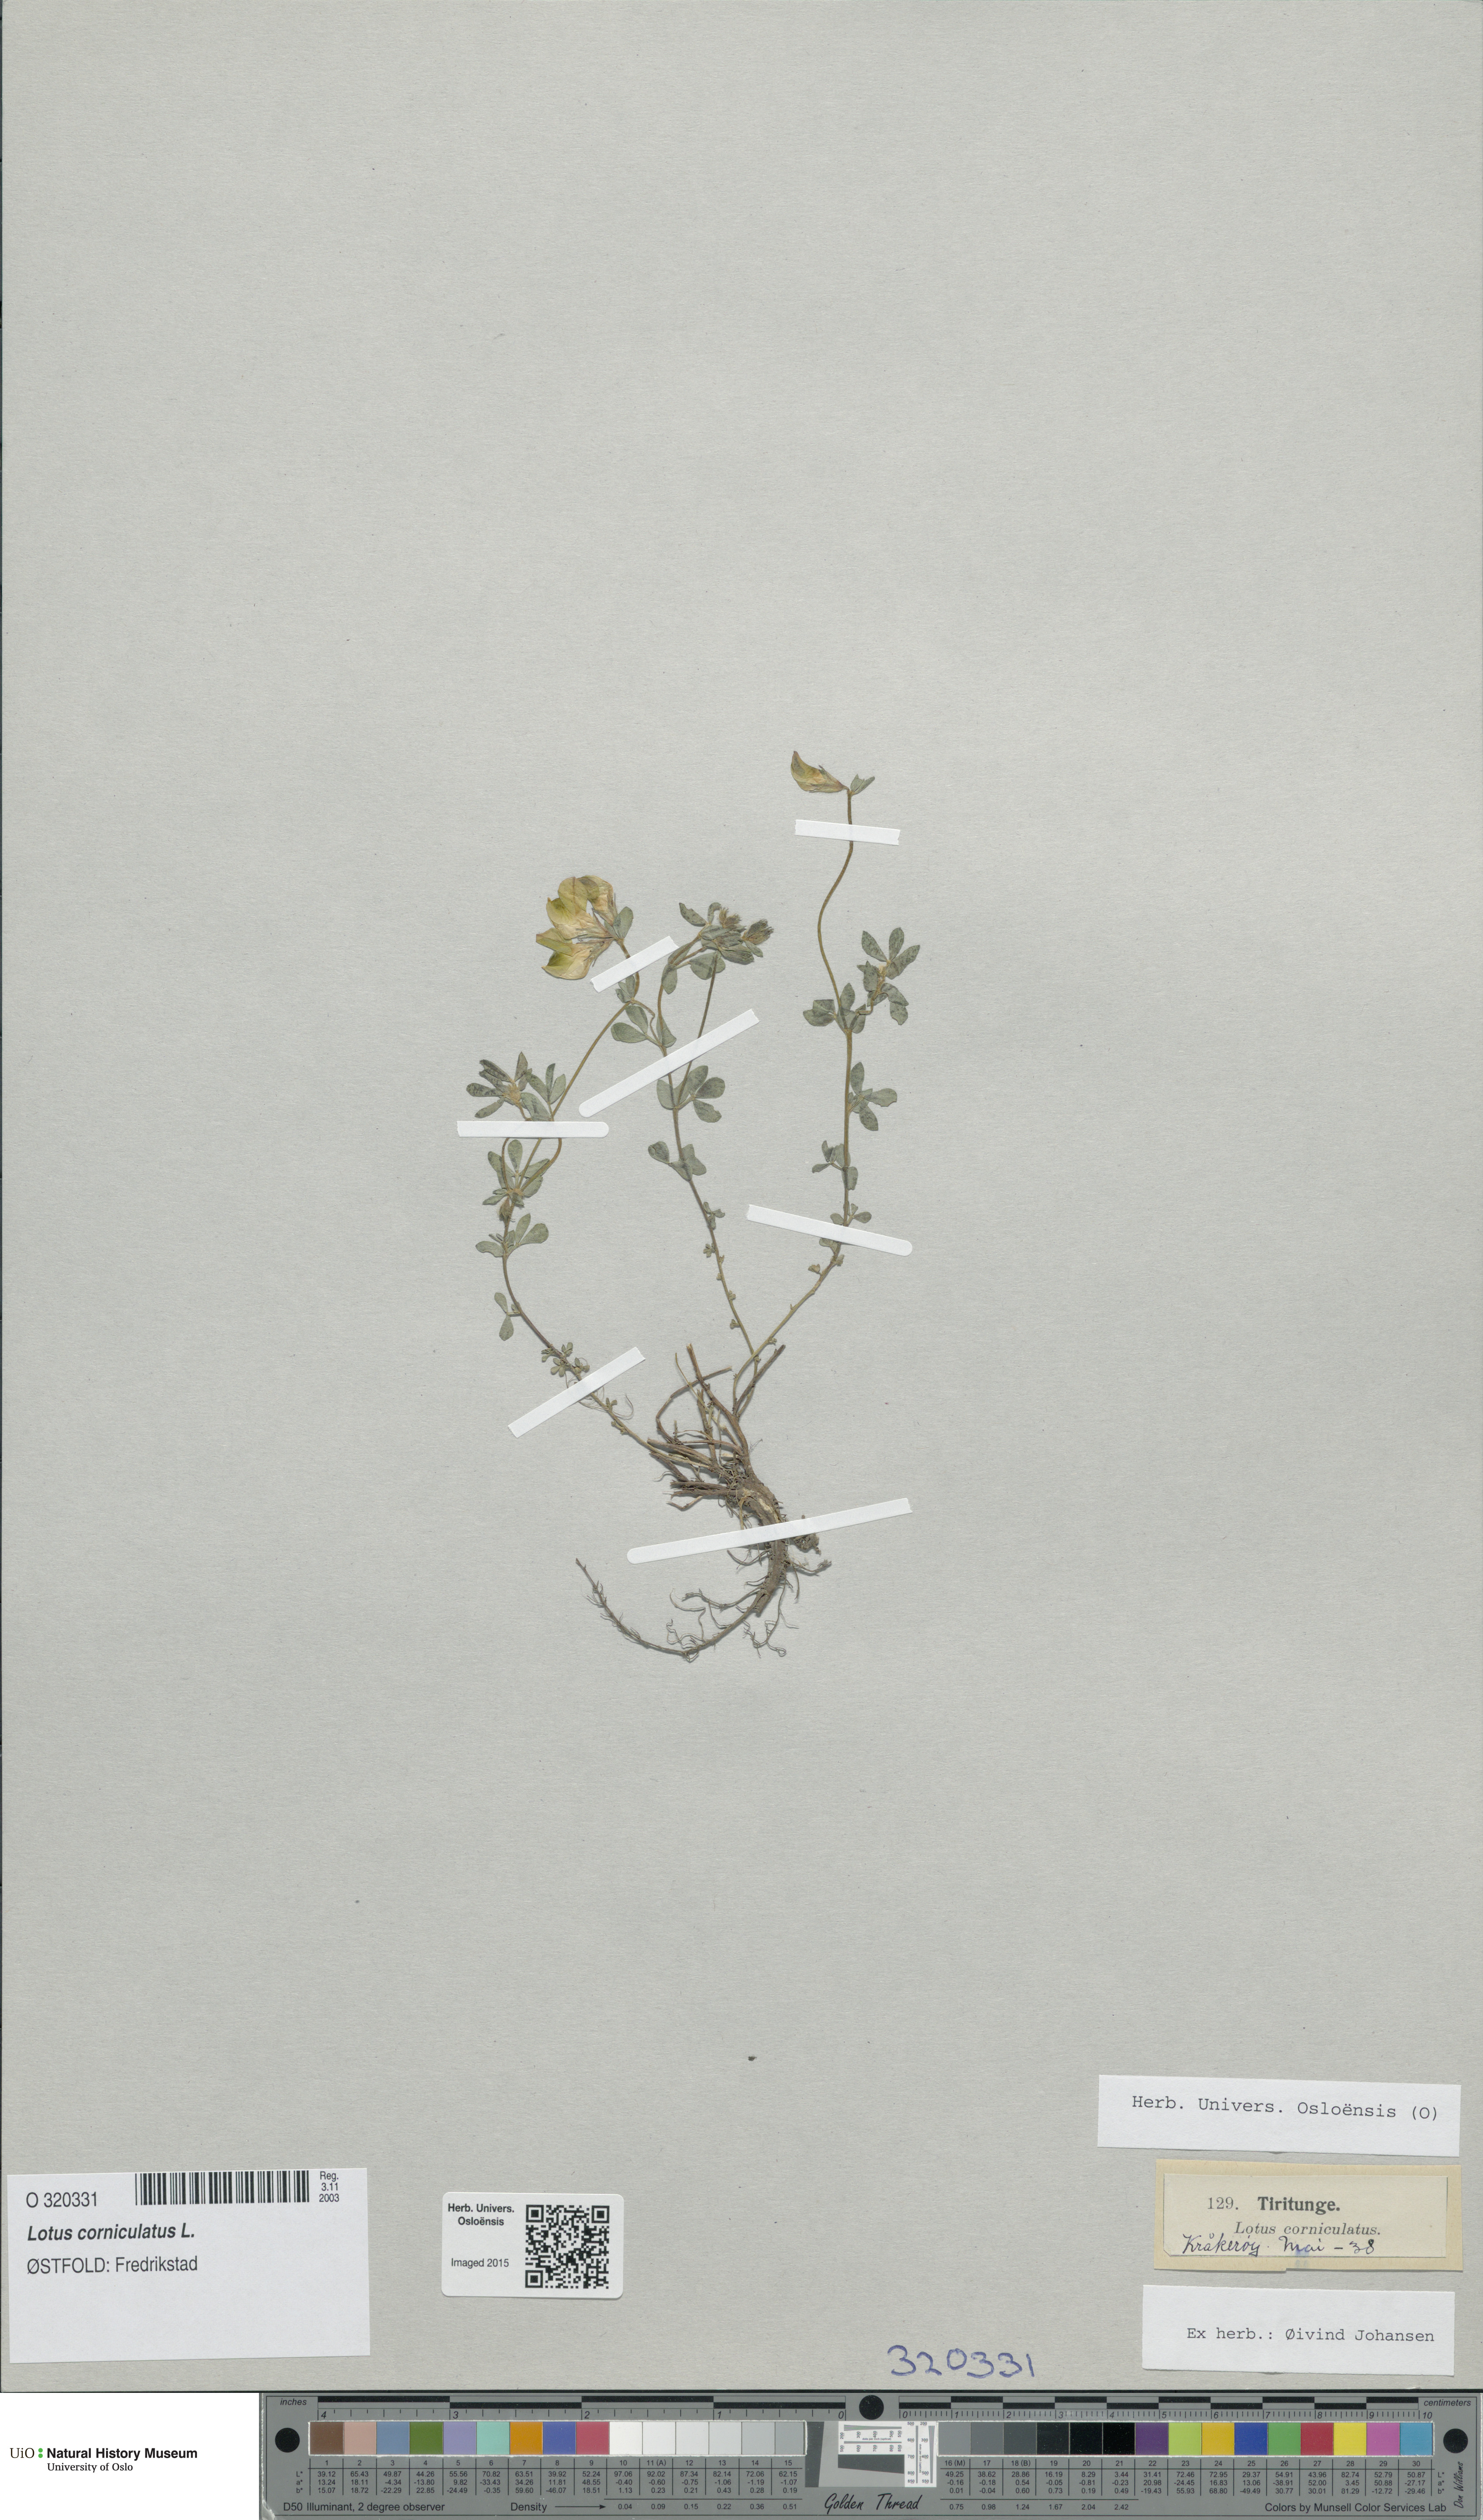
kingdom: Plantae
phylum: Tracheophyta
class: Magnoliopsida
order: Fabales
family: Fabaceae
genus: Lotus
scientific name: Lotus corniculatus
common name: Common bird's-foot-trefoil
